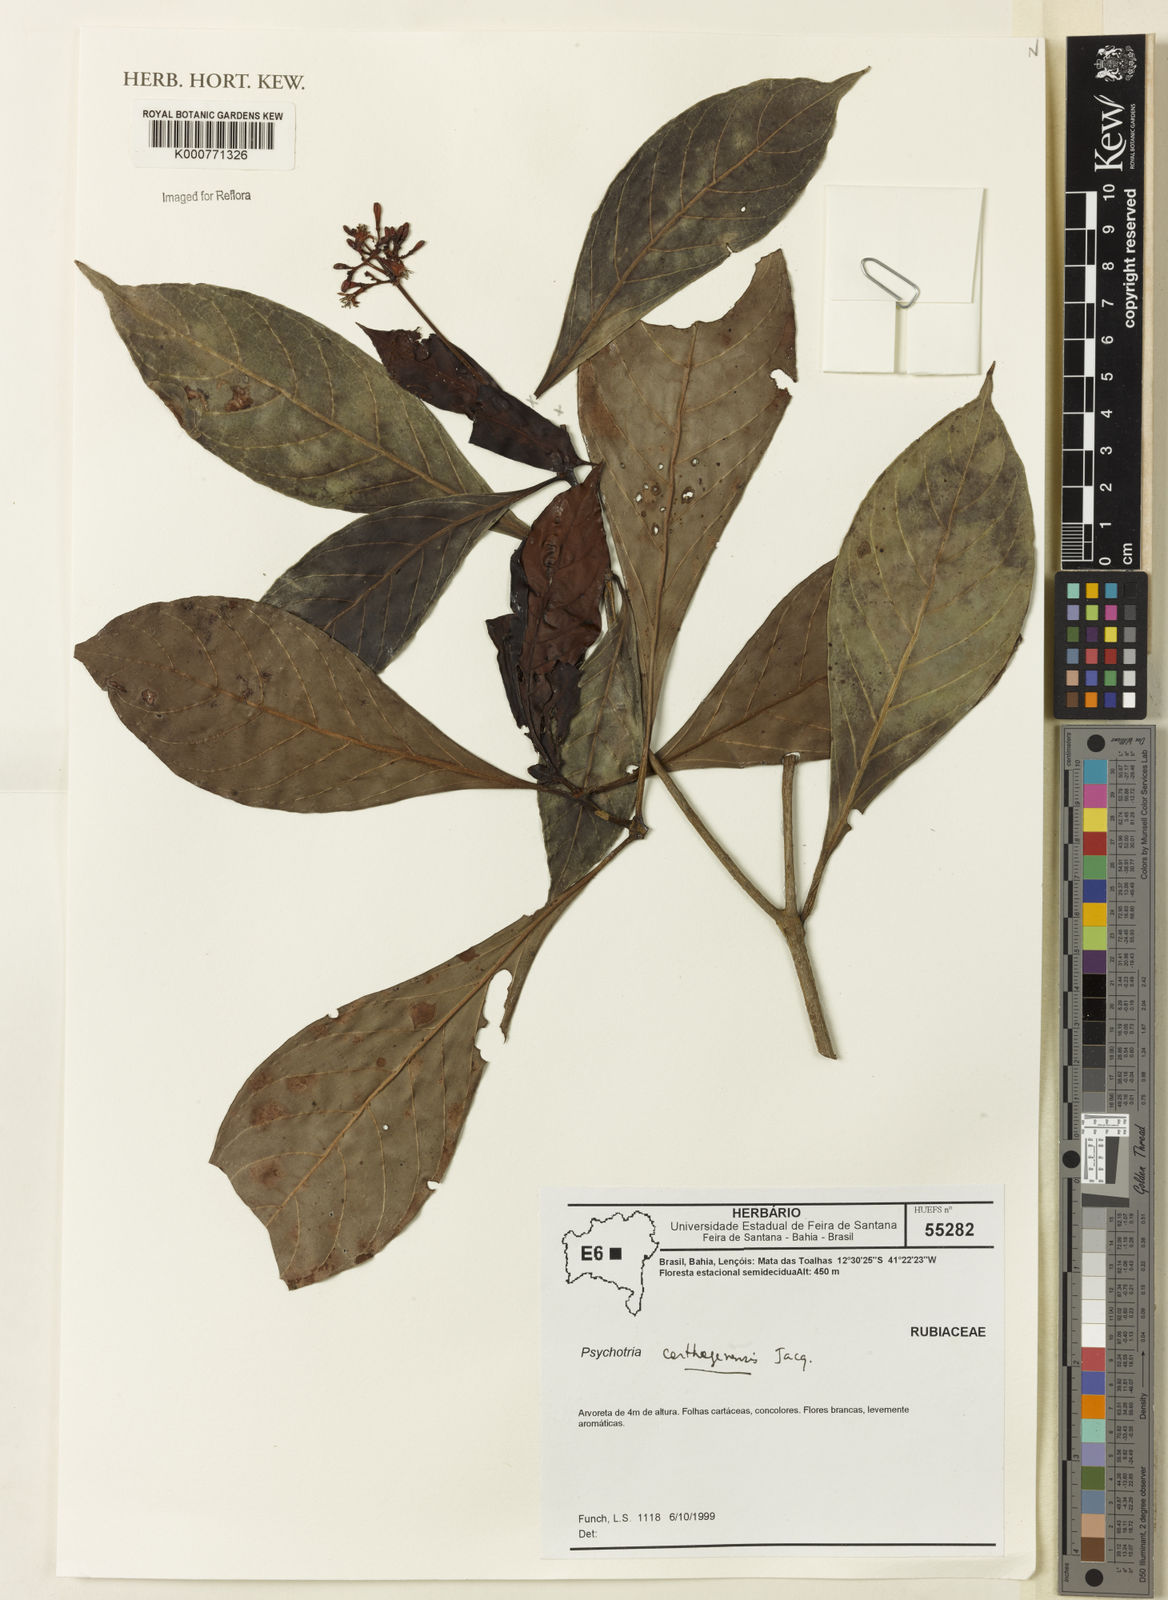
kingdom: Plantae
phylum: Tracheophyta
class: Magnoliopsida
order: Gentianales
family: Rubiaceae
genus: Psychotria
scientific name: Psychotria carthagenensis
